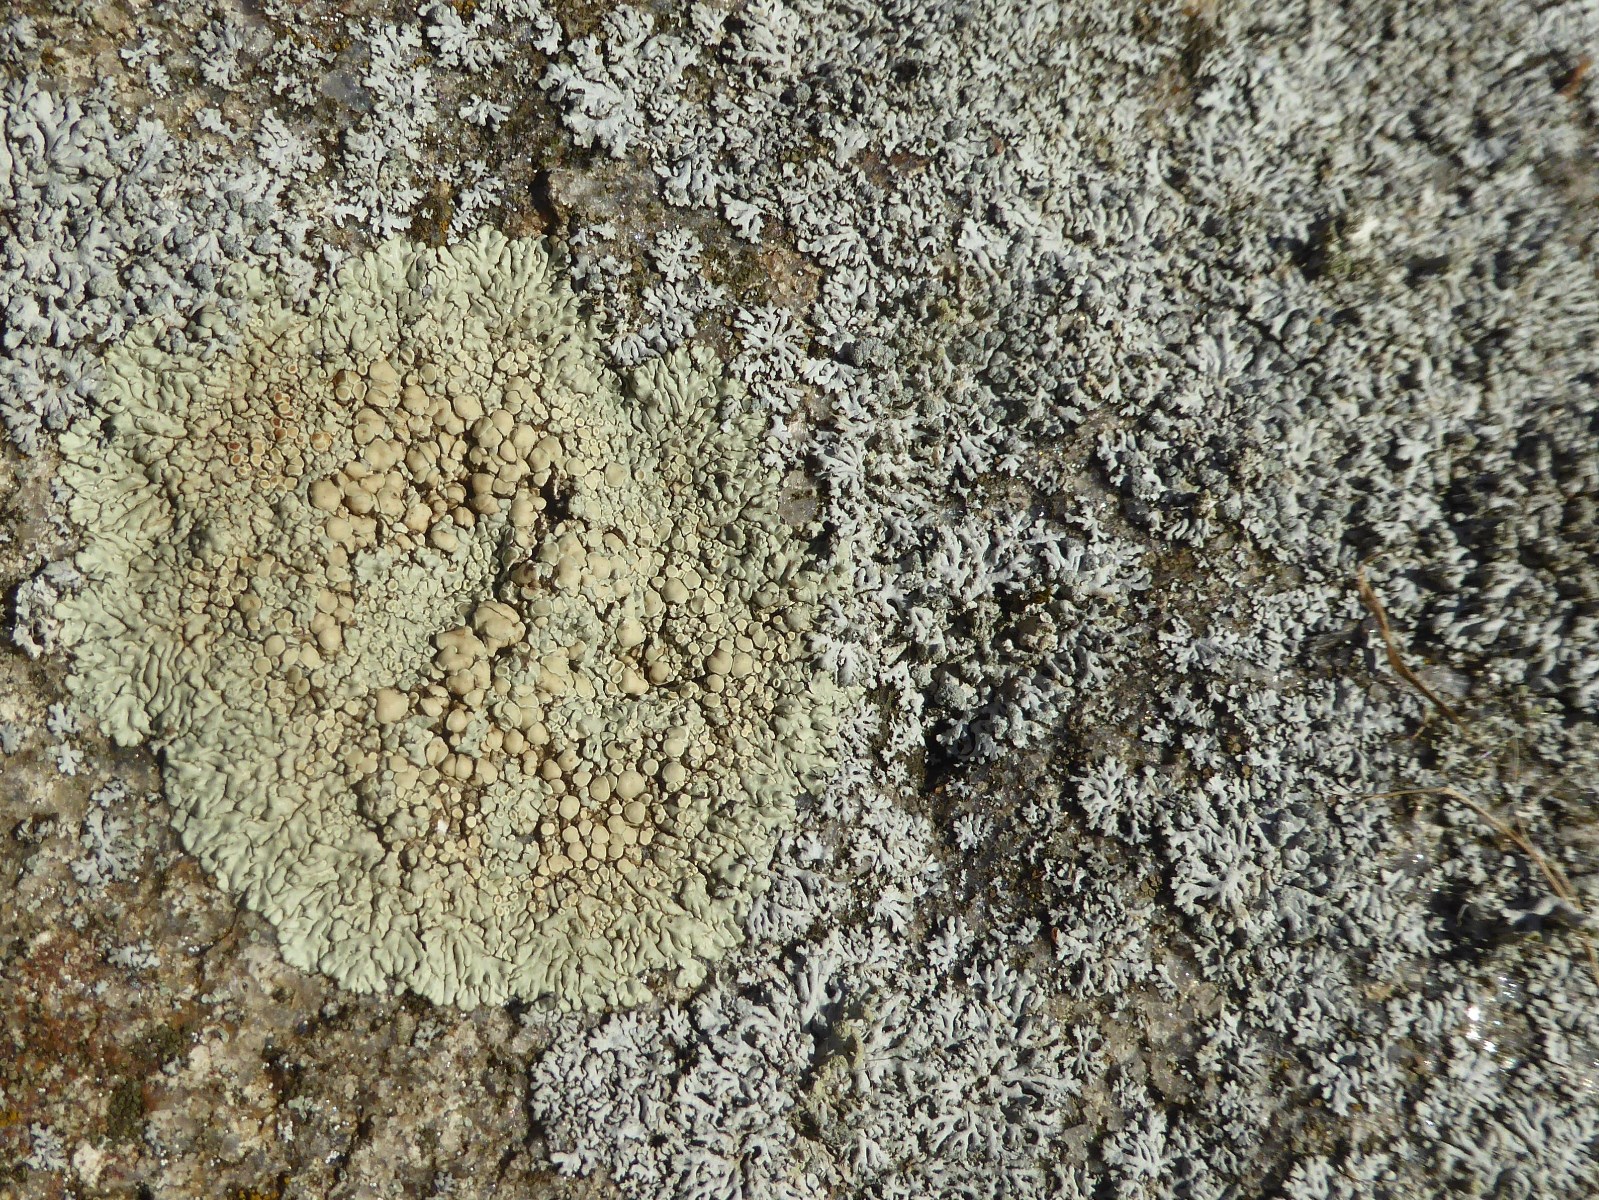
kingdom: Fungi
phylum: Ascomycota
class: Lecanoromycetes
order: Lecanorales
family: Lecanoraceae
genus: Protoparmeliopsis
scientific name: Protoparmeliopsis muralis
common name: randfliget kantskivelav
